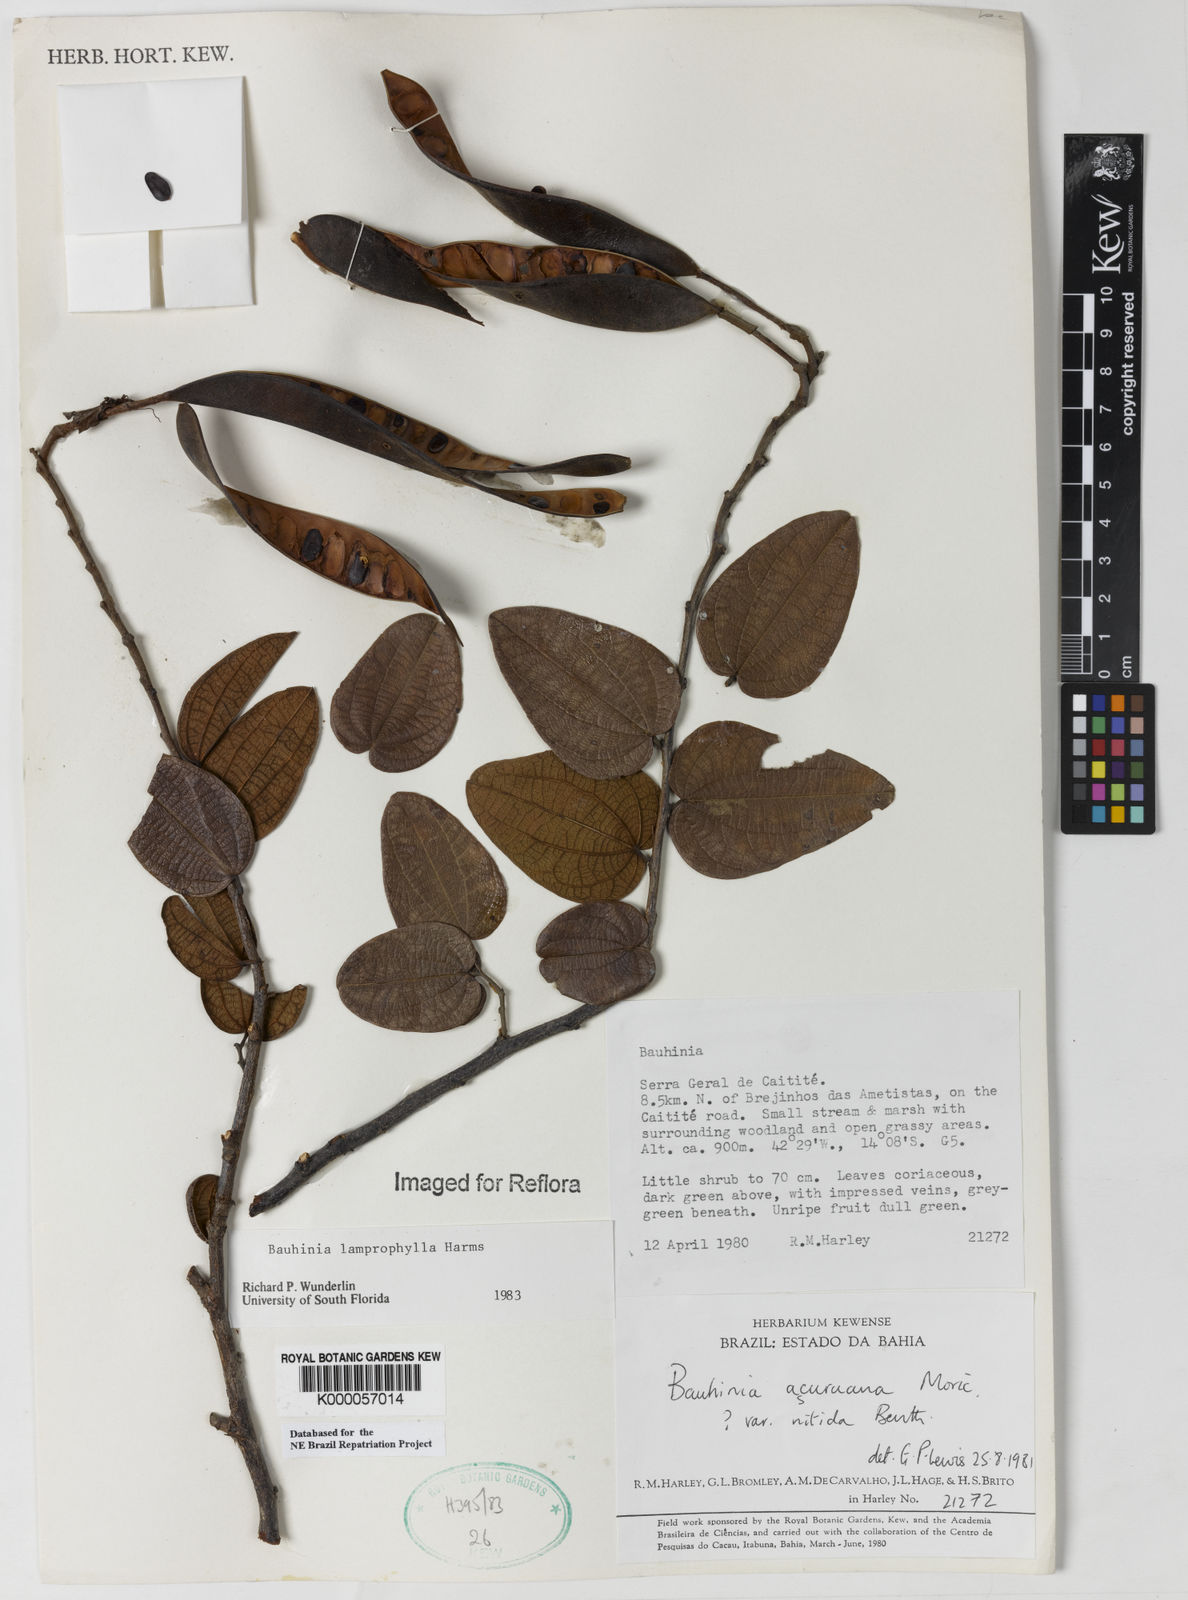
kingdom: Plantae
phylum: Tracheophyta
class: Magnoliopsida
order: Fabales
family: Fabaceae
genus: Bauhinia
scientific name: Bauhinia acuruana
